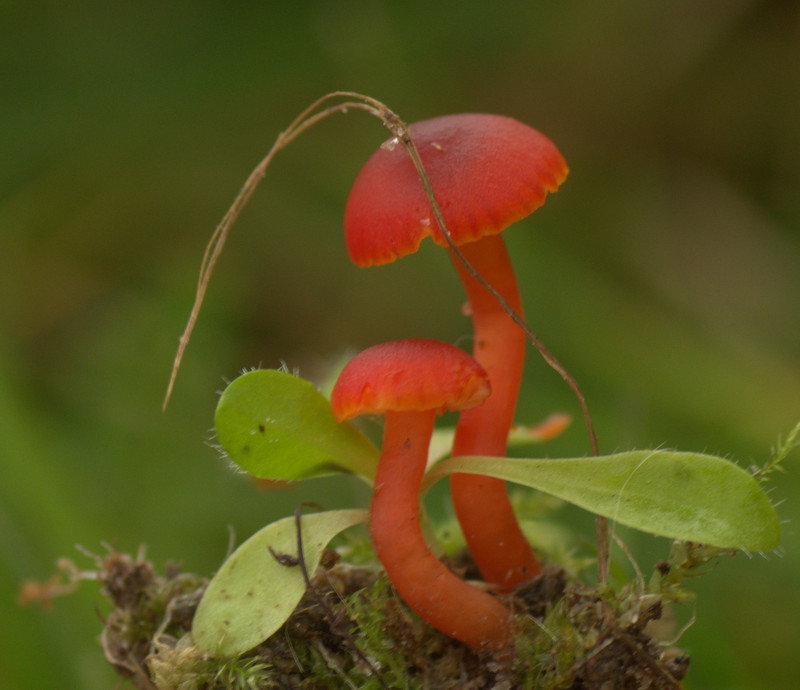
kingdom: Fungi
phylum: Basidiomycota
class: Agaricomycetes
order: Agaricales
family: Hygrophoraceae
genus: Hygrocybe
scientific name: Hygrocybe phaeococcinea
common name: sortdugget vokshat
